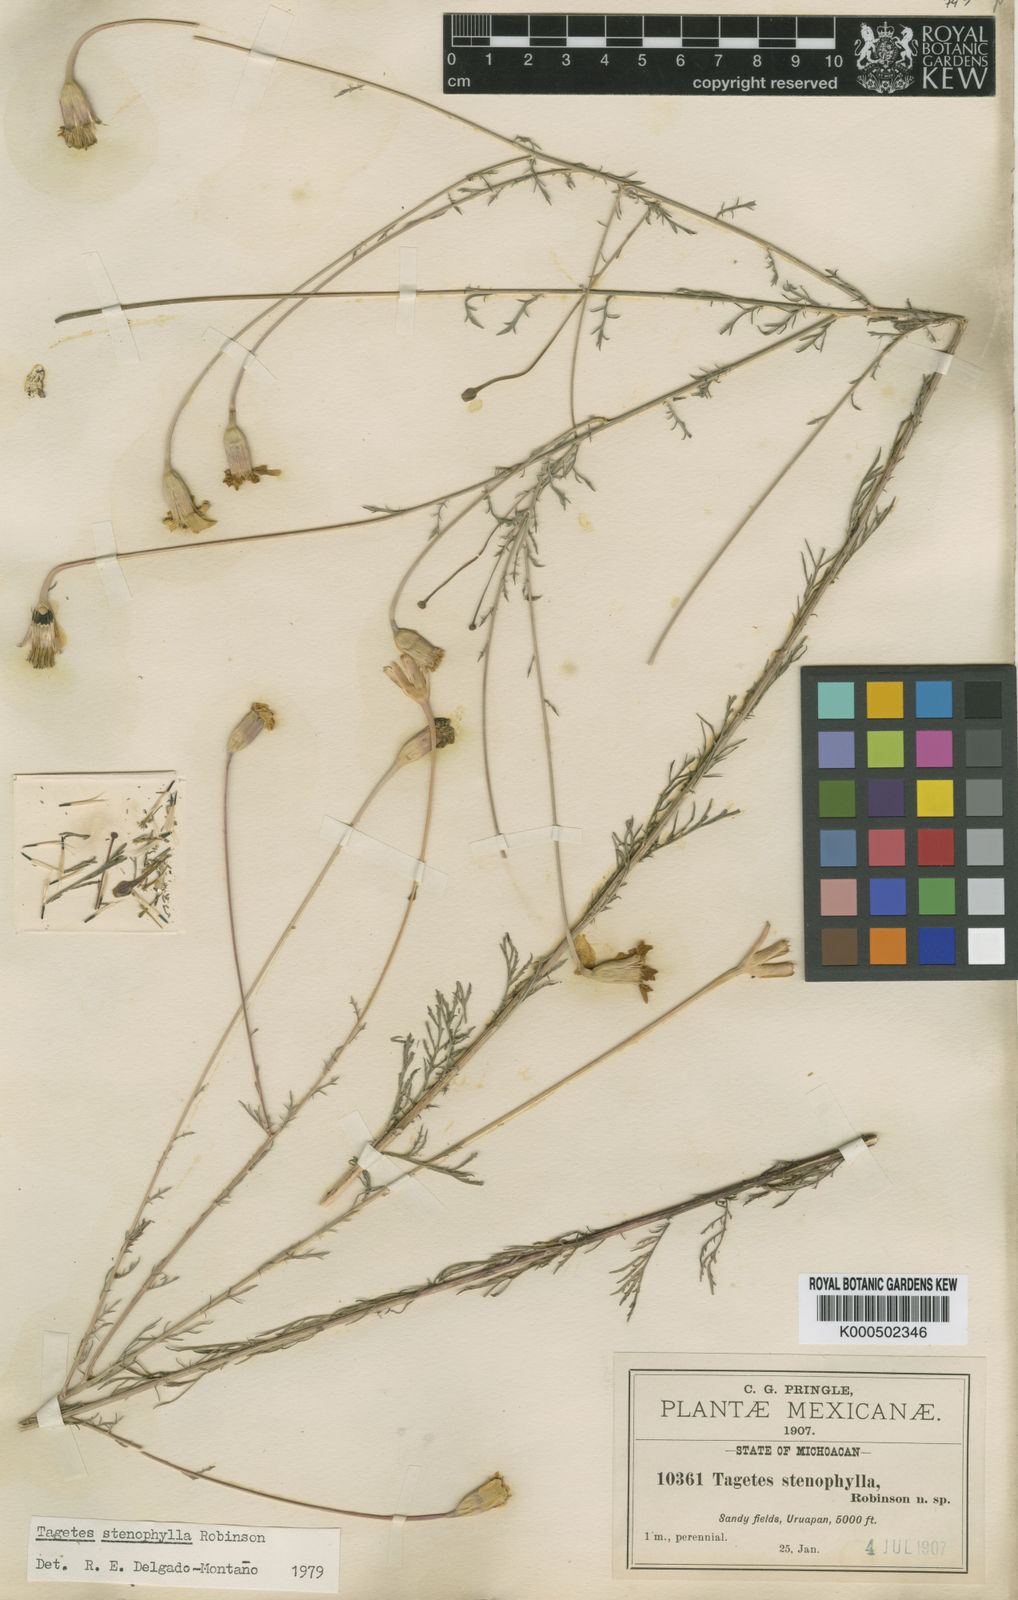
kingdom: Plantae
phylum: Tracheophyta
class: Magnoliopsida
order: Asterales
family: Asteraceae
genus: Tagetes
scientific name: Tagetes stenophylla
